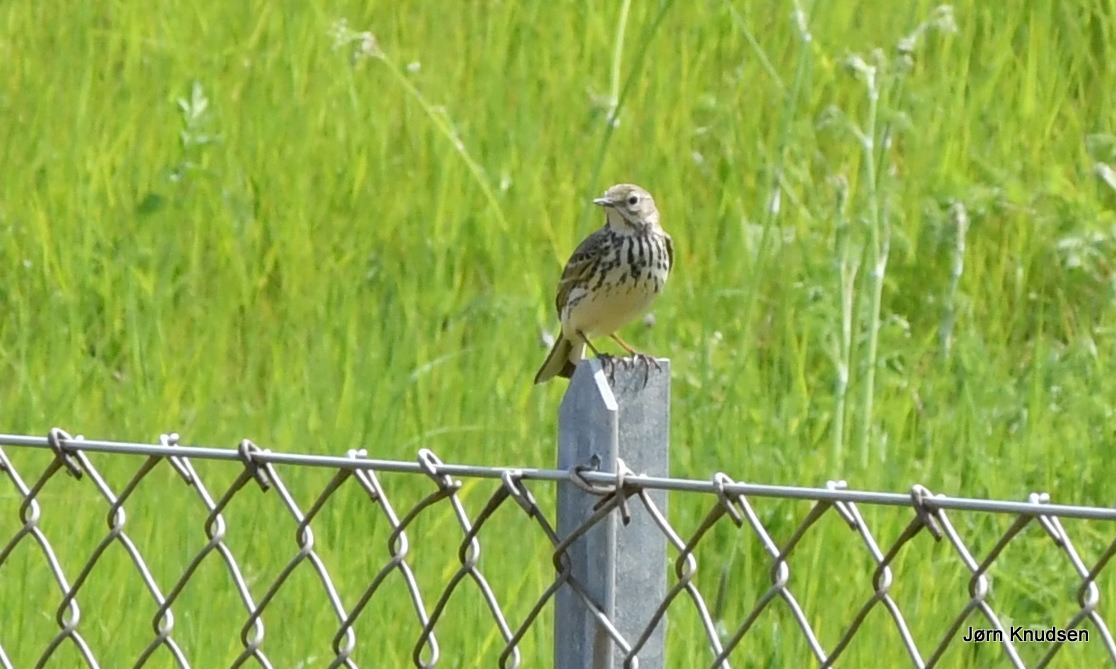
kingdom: Animalia
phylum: Chordata
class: Aves
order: Passeriformes
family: Motacillidae
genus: Anthus
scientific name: Anthus pratensis
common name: Engpiber
